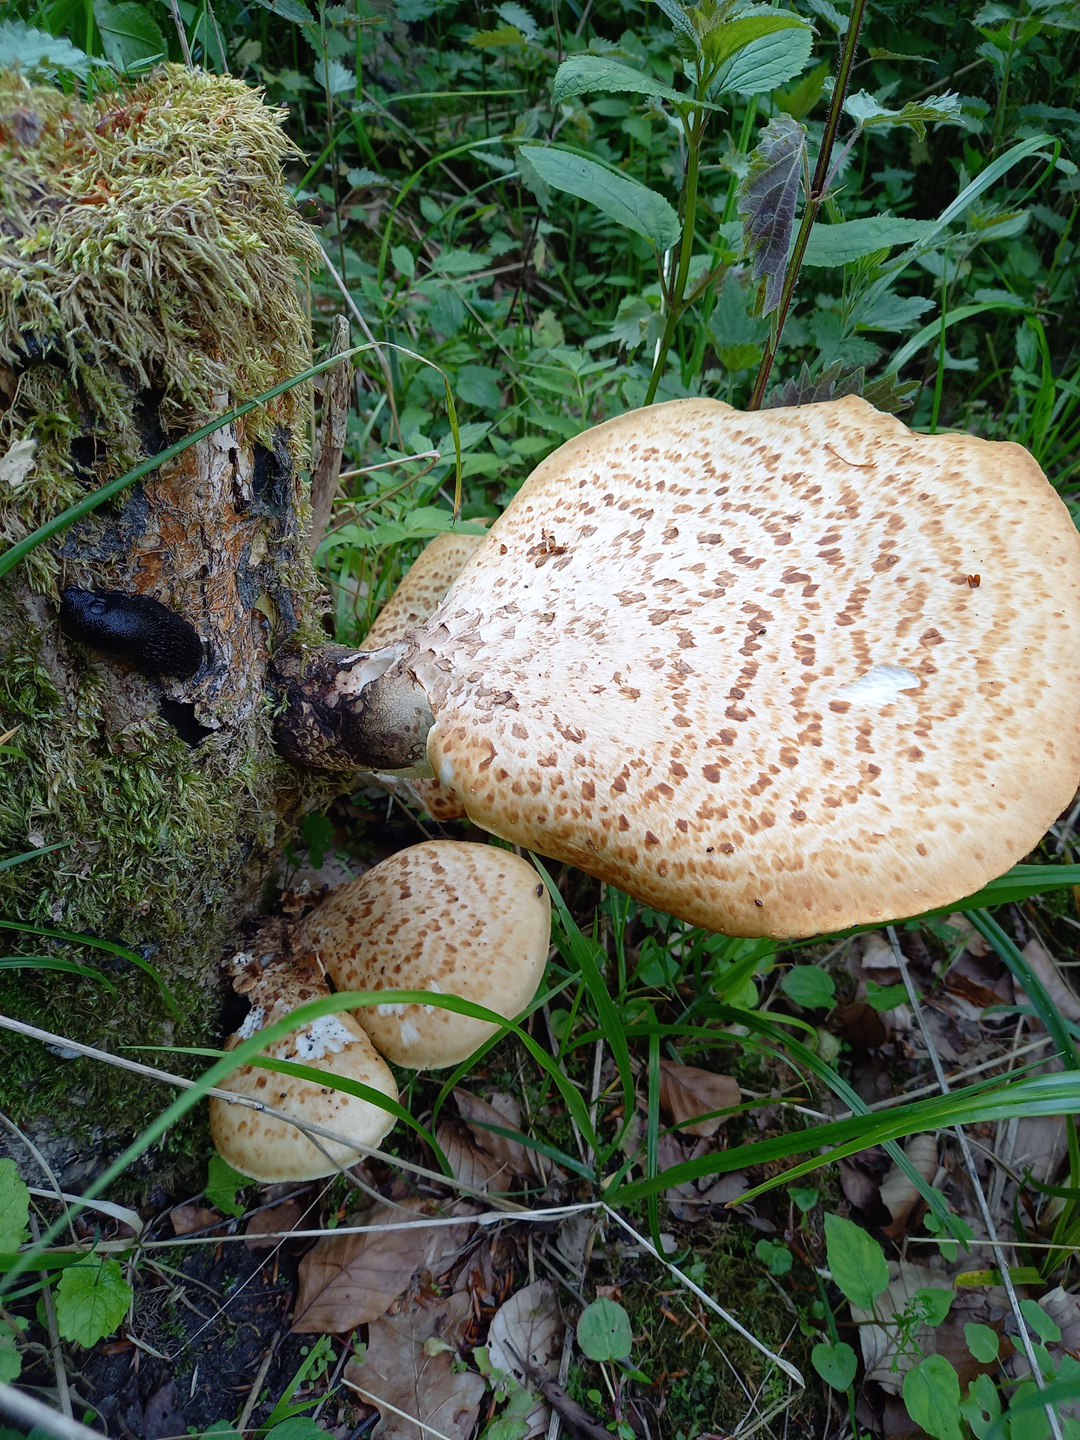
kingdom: Fungi
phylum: Basidiomycota
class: Agaricomycetes
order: Polyporales
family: Polyporaceae
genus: Cerioporus
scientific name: Cerioporus squamosus
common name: skællet stilkporesvamp
